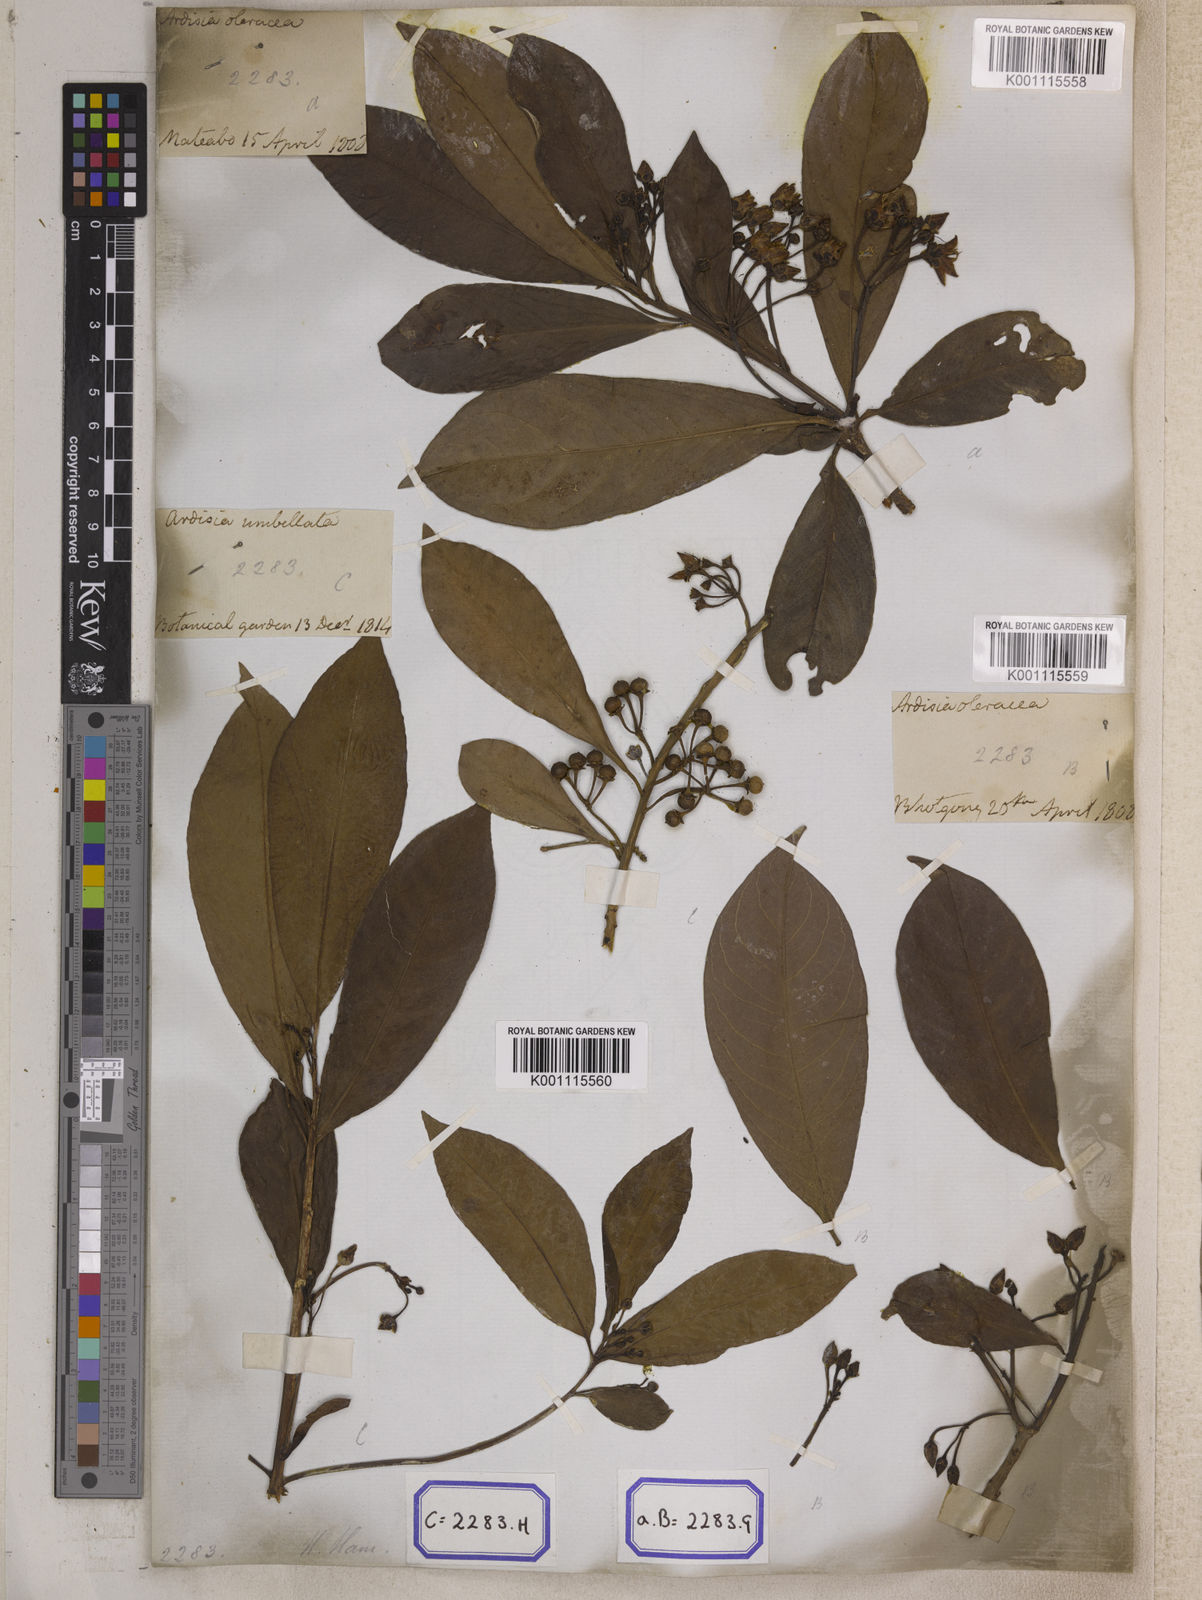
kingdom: Plantae
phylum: Tracheophyta
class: Magnoliopsida
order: Ericales
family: Primulaceae
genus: Ardisia
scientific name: Ardisia humilis
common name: Low shoebutton
